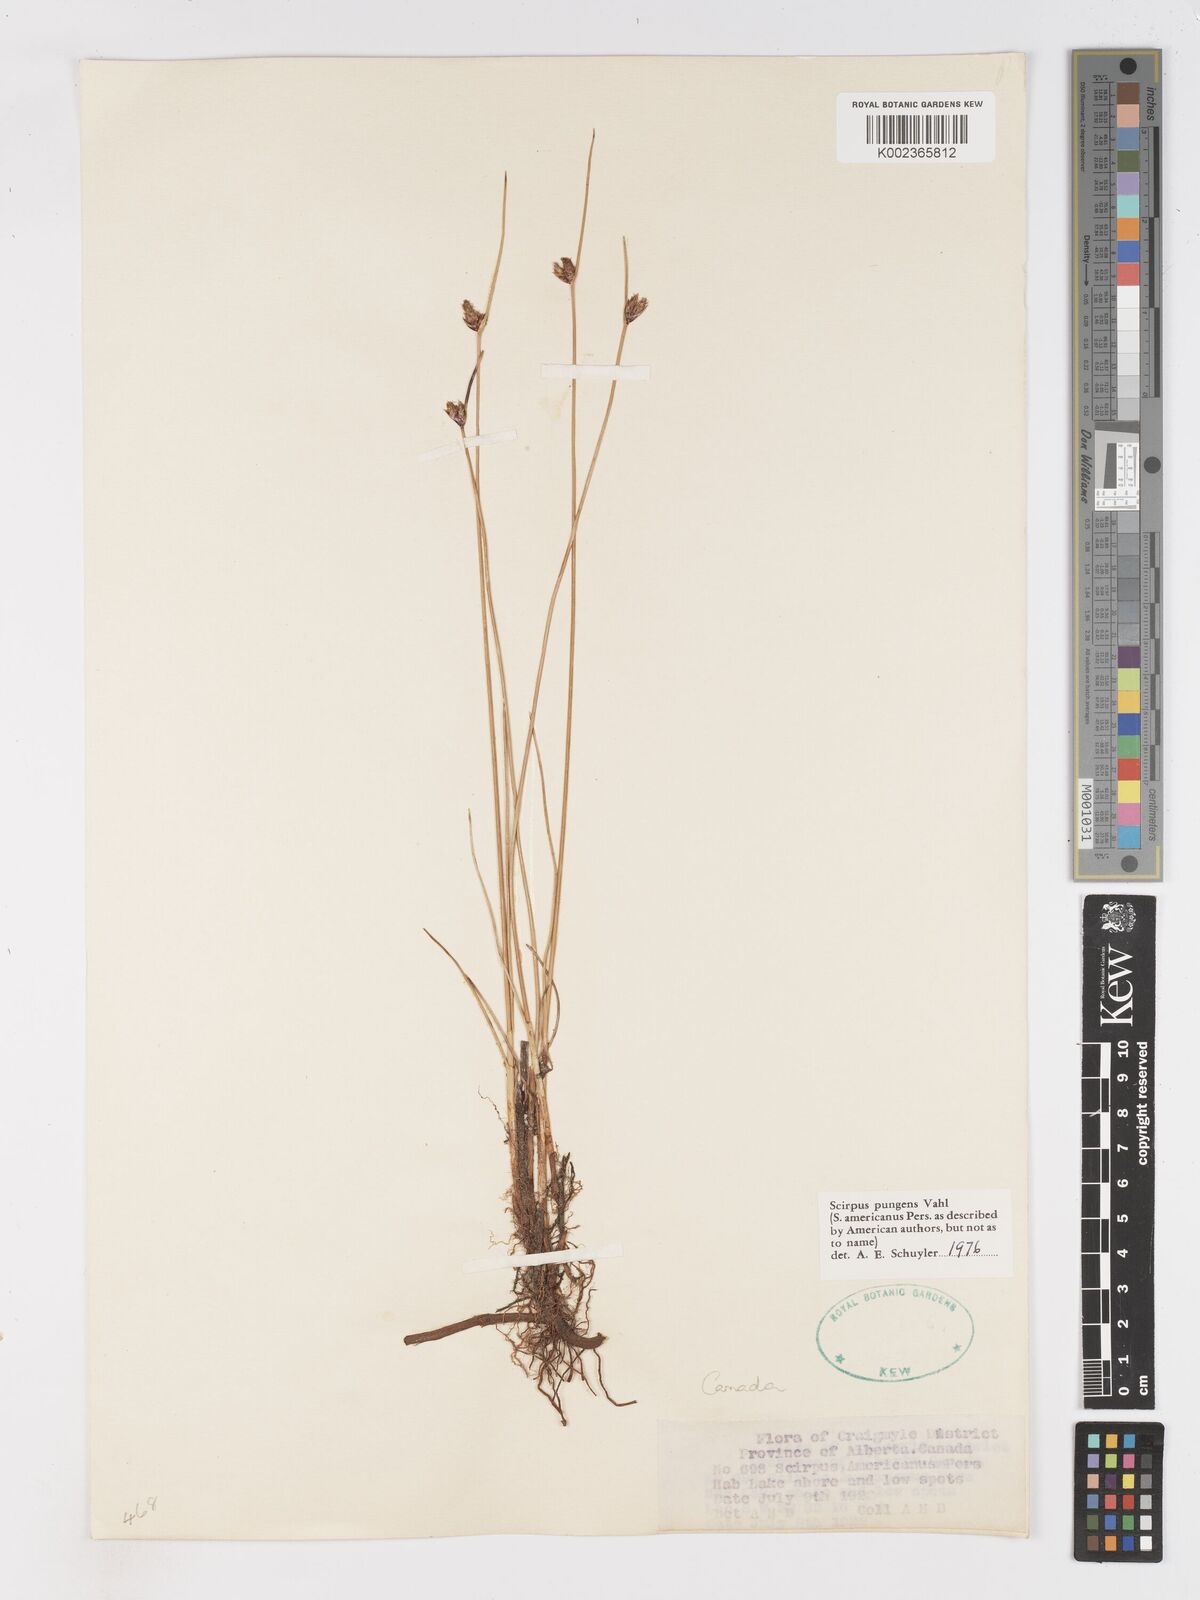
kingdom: Plantae
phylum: Tracheophyta
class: Liliopsida
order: Poales
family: Cyperaceae
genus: Schoenoplectus
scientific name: Schoenoplectus pungens
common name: Sharp club-rush
